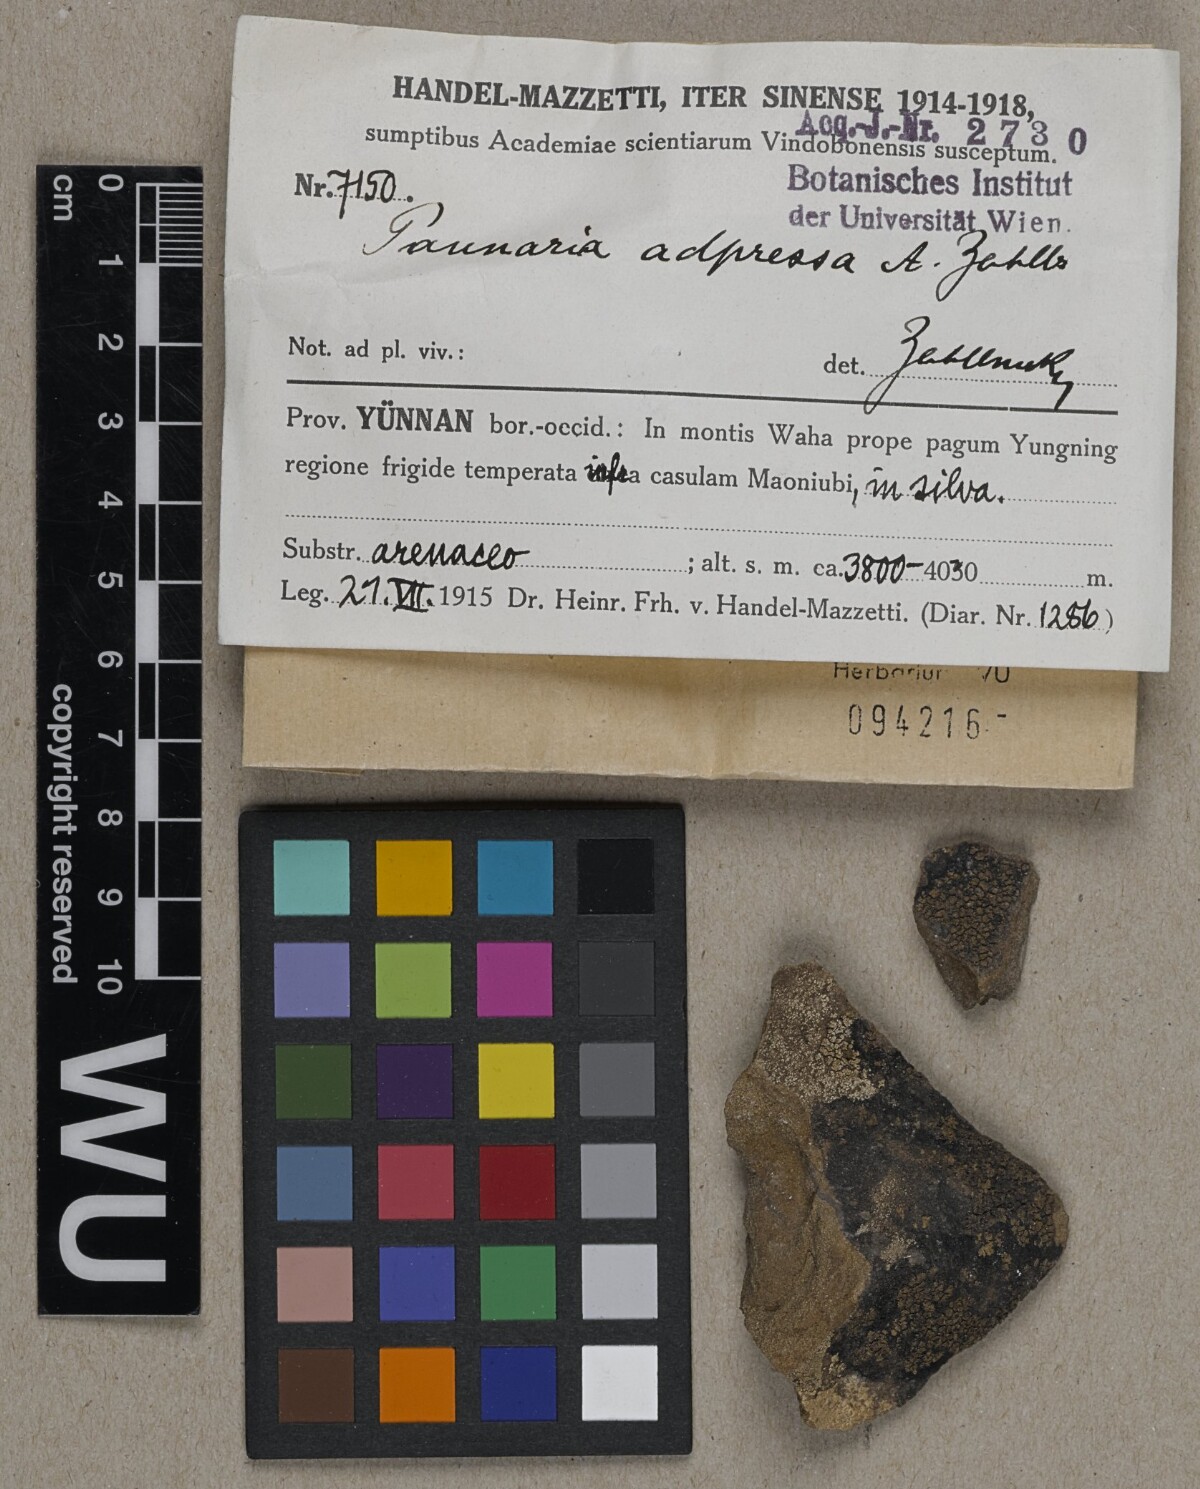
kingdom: Fungi
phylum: Ascomycota
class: Lecanoromycetes
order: Peltigerales
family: Pannariaceae
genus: Pannaria
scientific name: Pannaria adpressa
